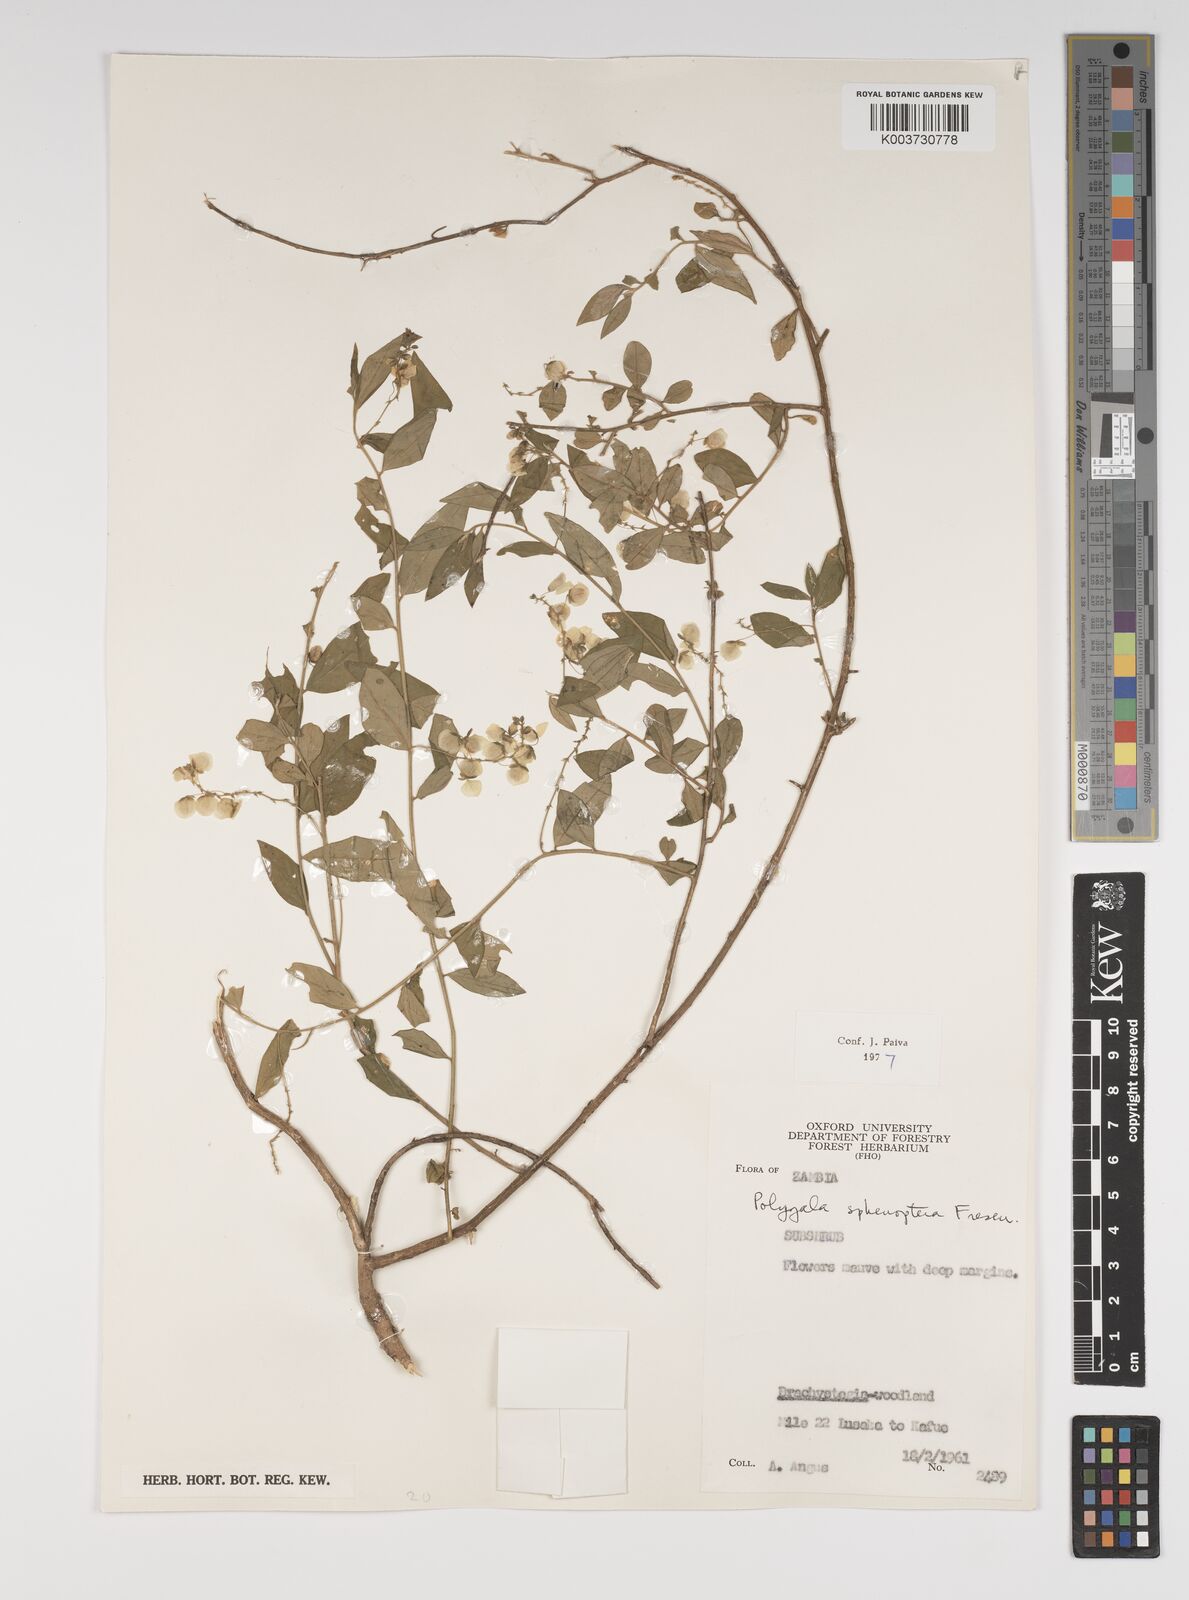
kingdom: Plantae
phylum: Tracheophyta
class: Magnoliopsida
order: Fabales
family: Polygalaceae
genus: Polygala
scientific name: Polygala sphenoptera
